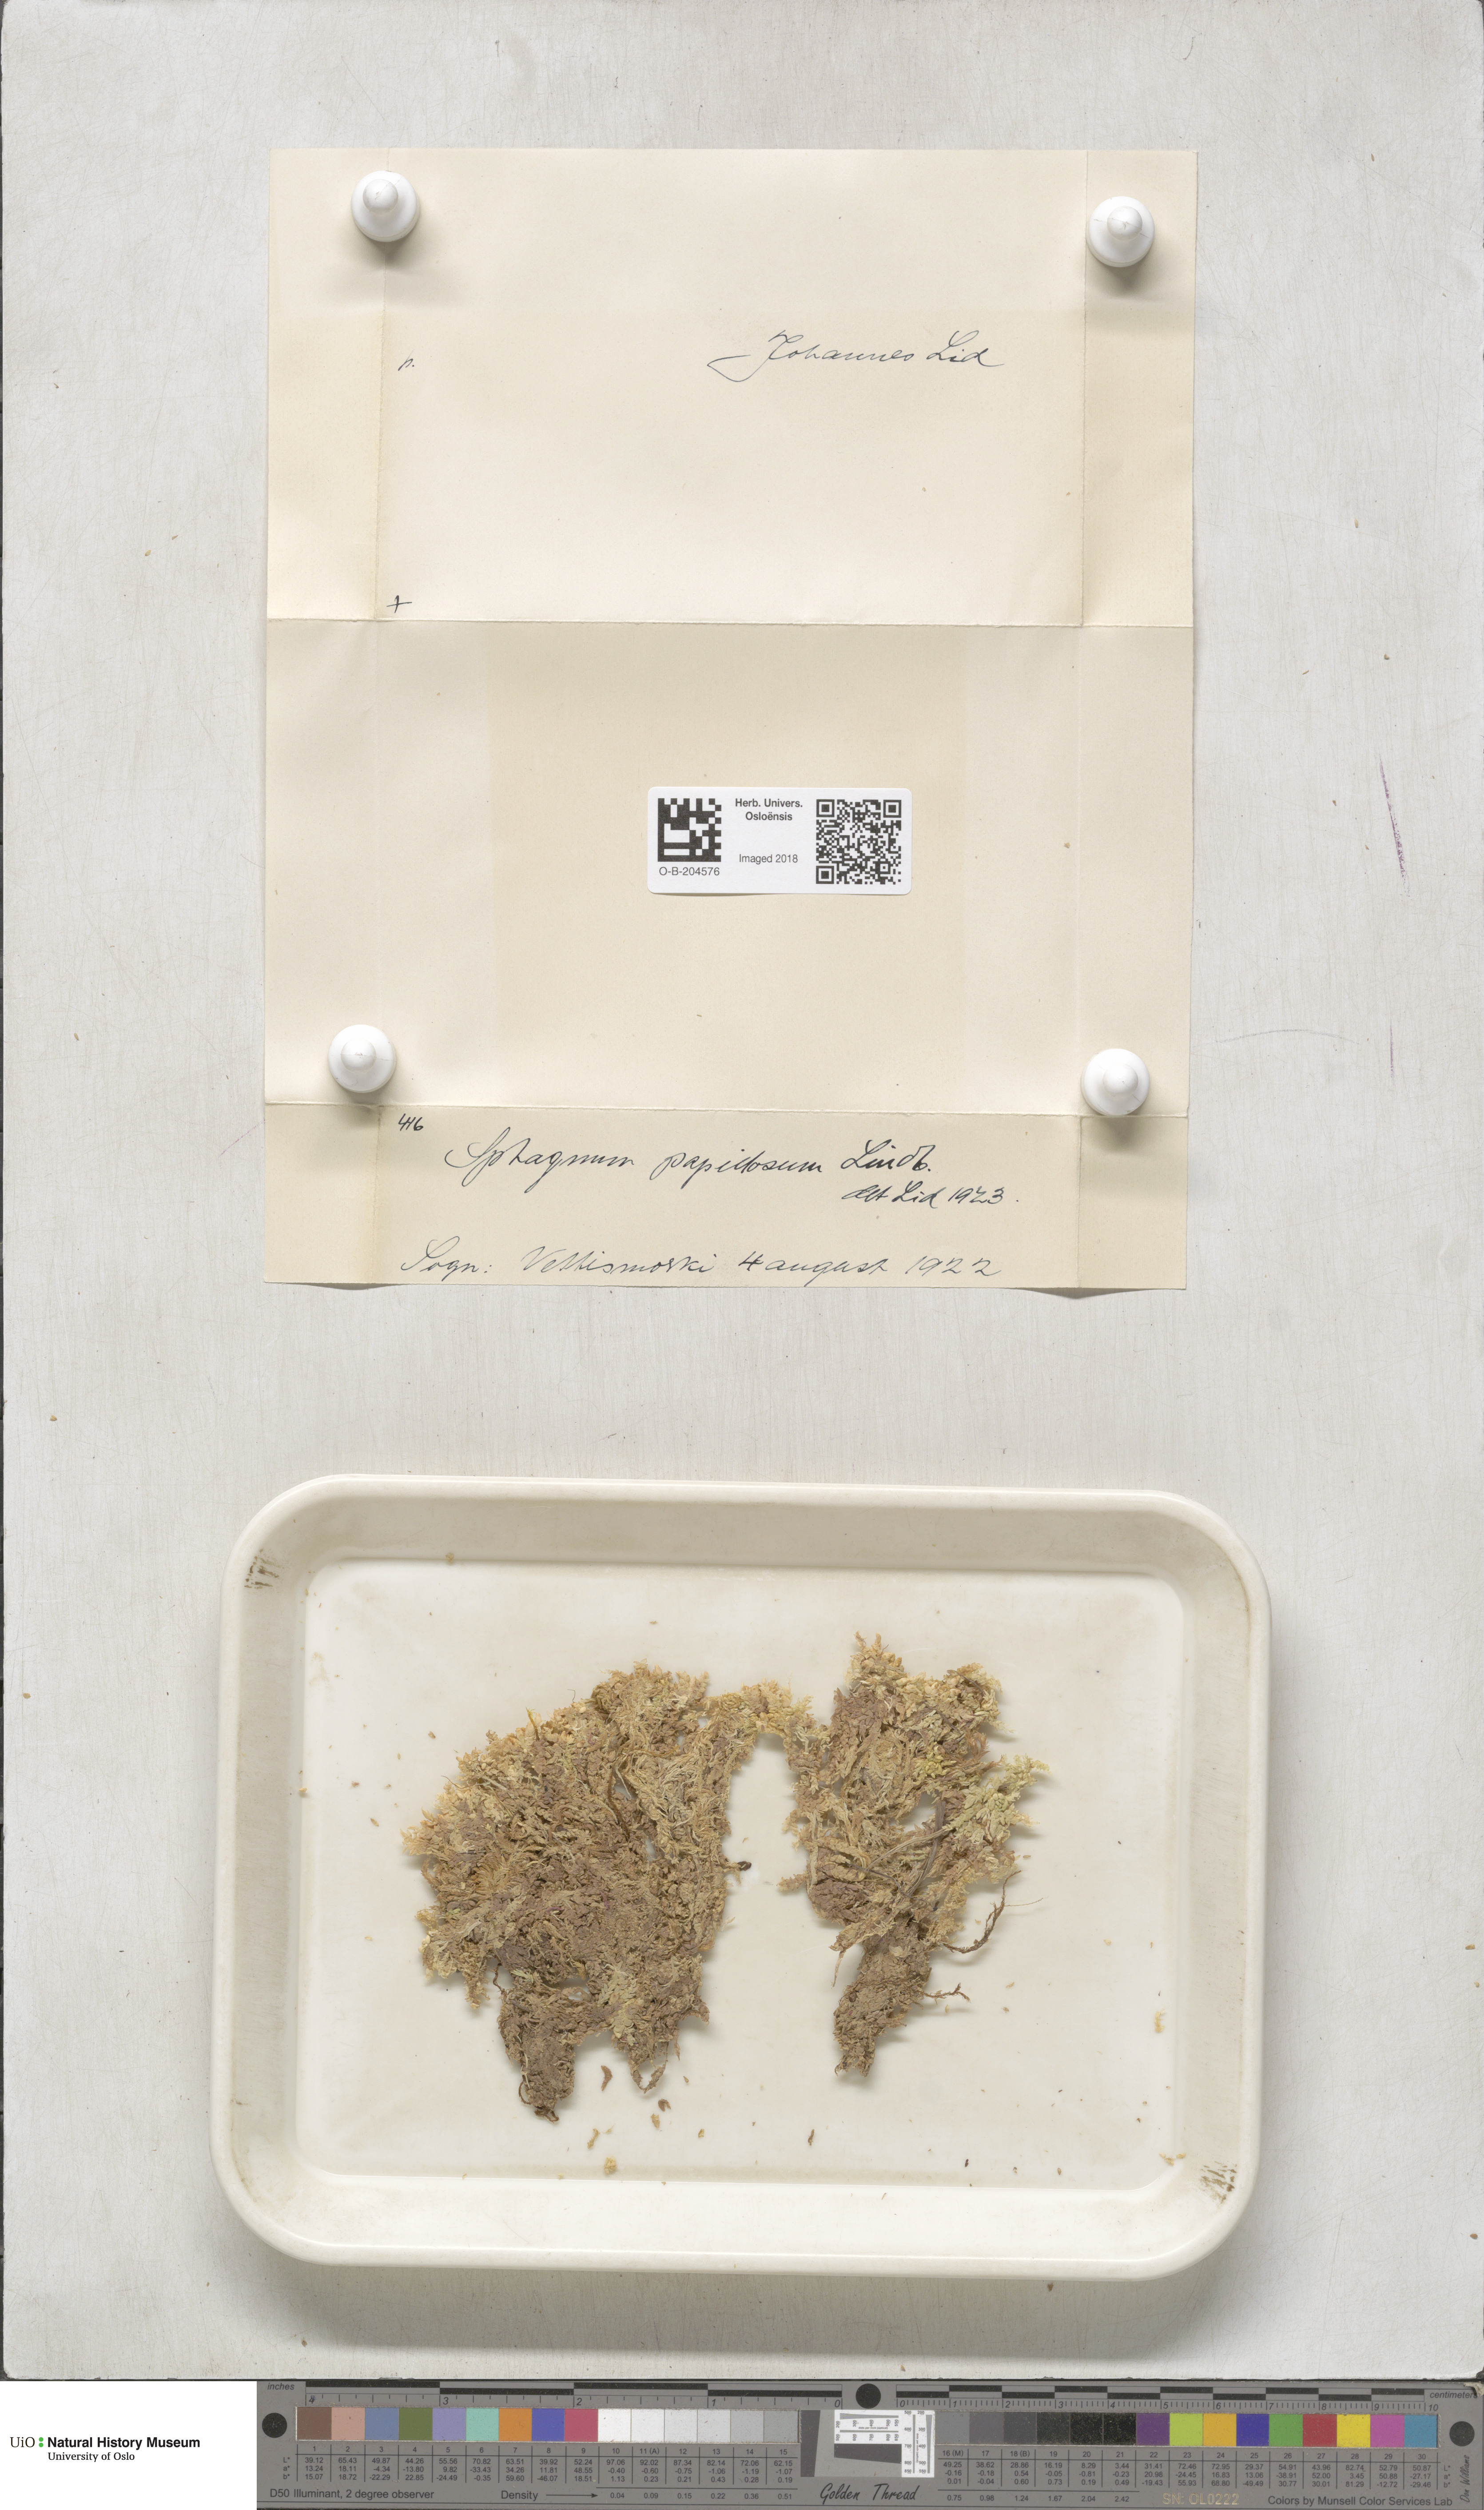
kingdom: Plantae
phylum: Bryophyta
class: Sphagnopsida
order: Sphagnales
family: Sphagnaceae
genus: Sphagnum
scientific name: Sphagnum papillosum
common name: Papillose peat moss
